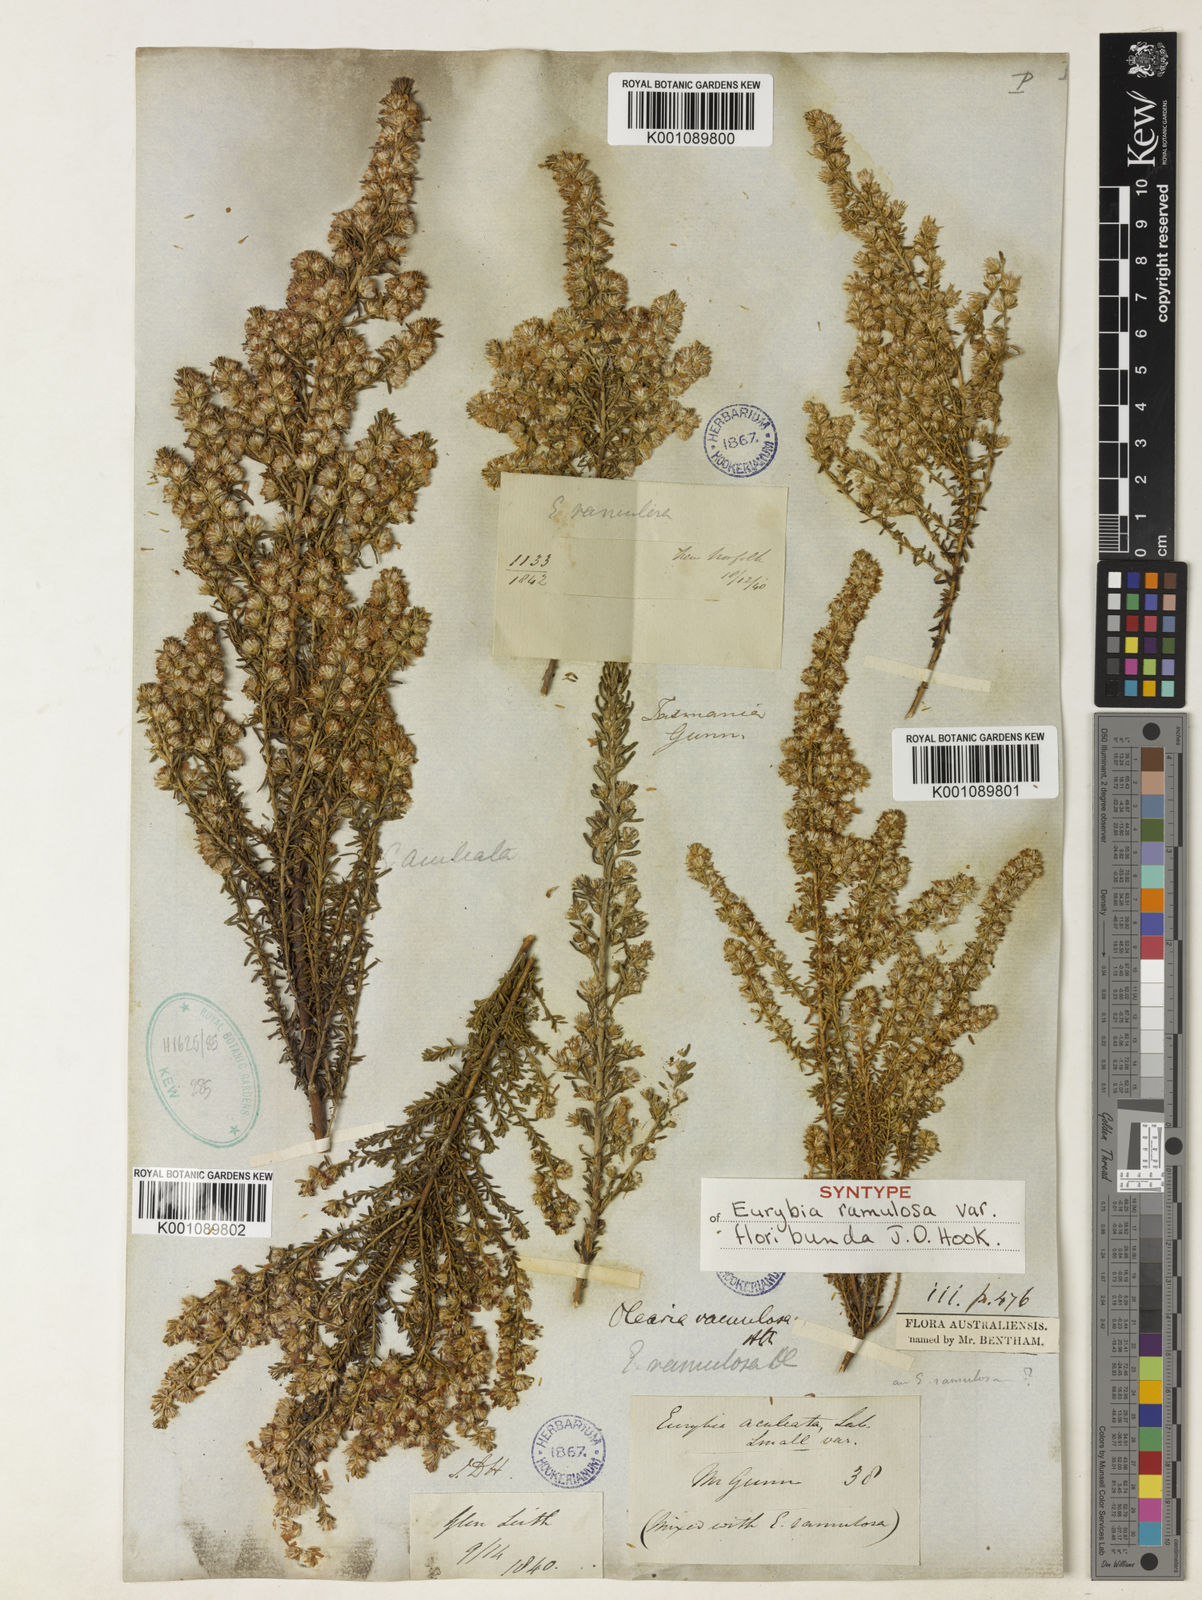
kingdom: Plantae
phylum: Tracheophyta
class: Magnoliopsida
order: Asterales
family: Asteraceae
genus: Olearia
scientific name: Olearia ramulosa
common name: Twiggy daisybush
